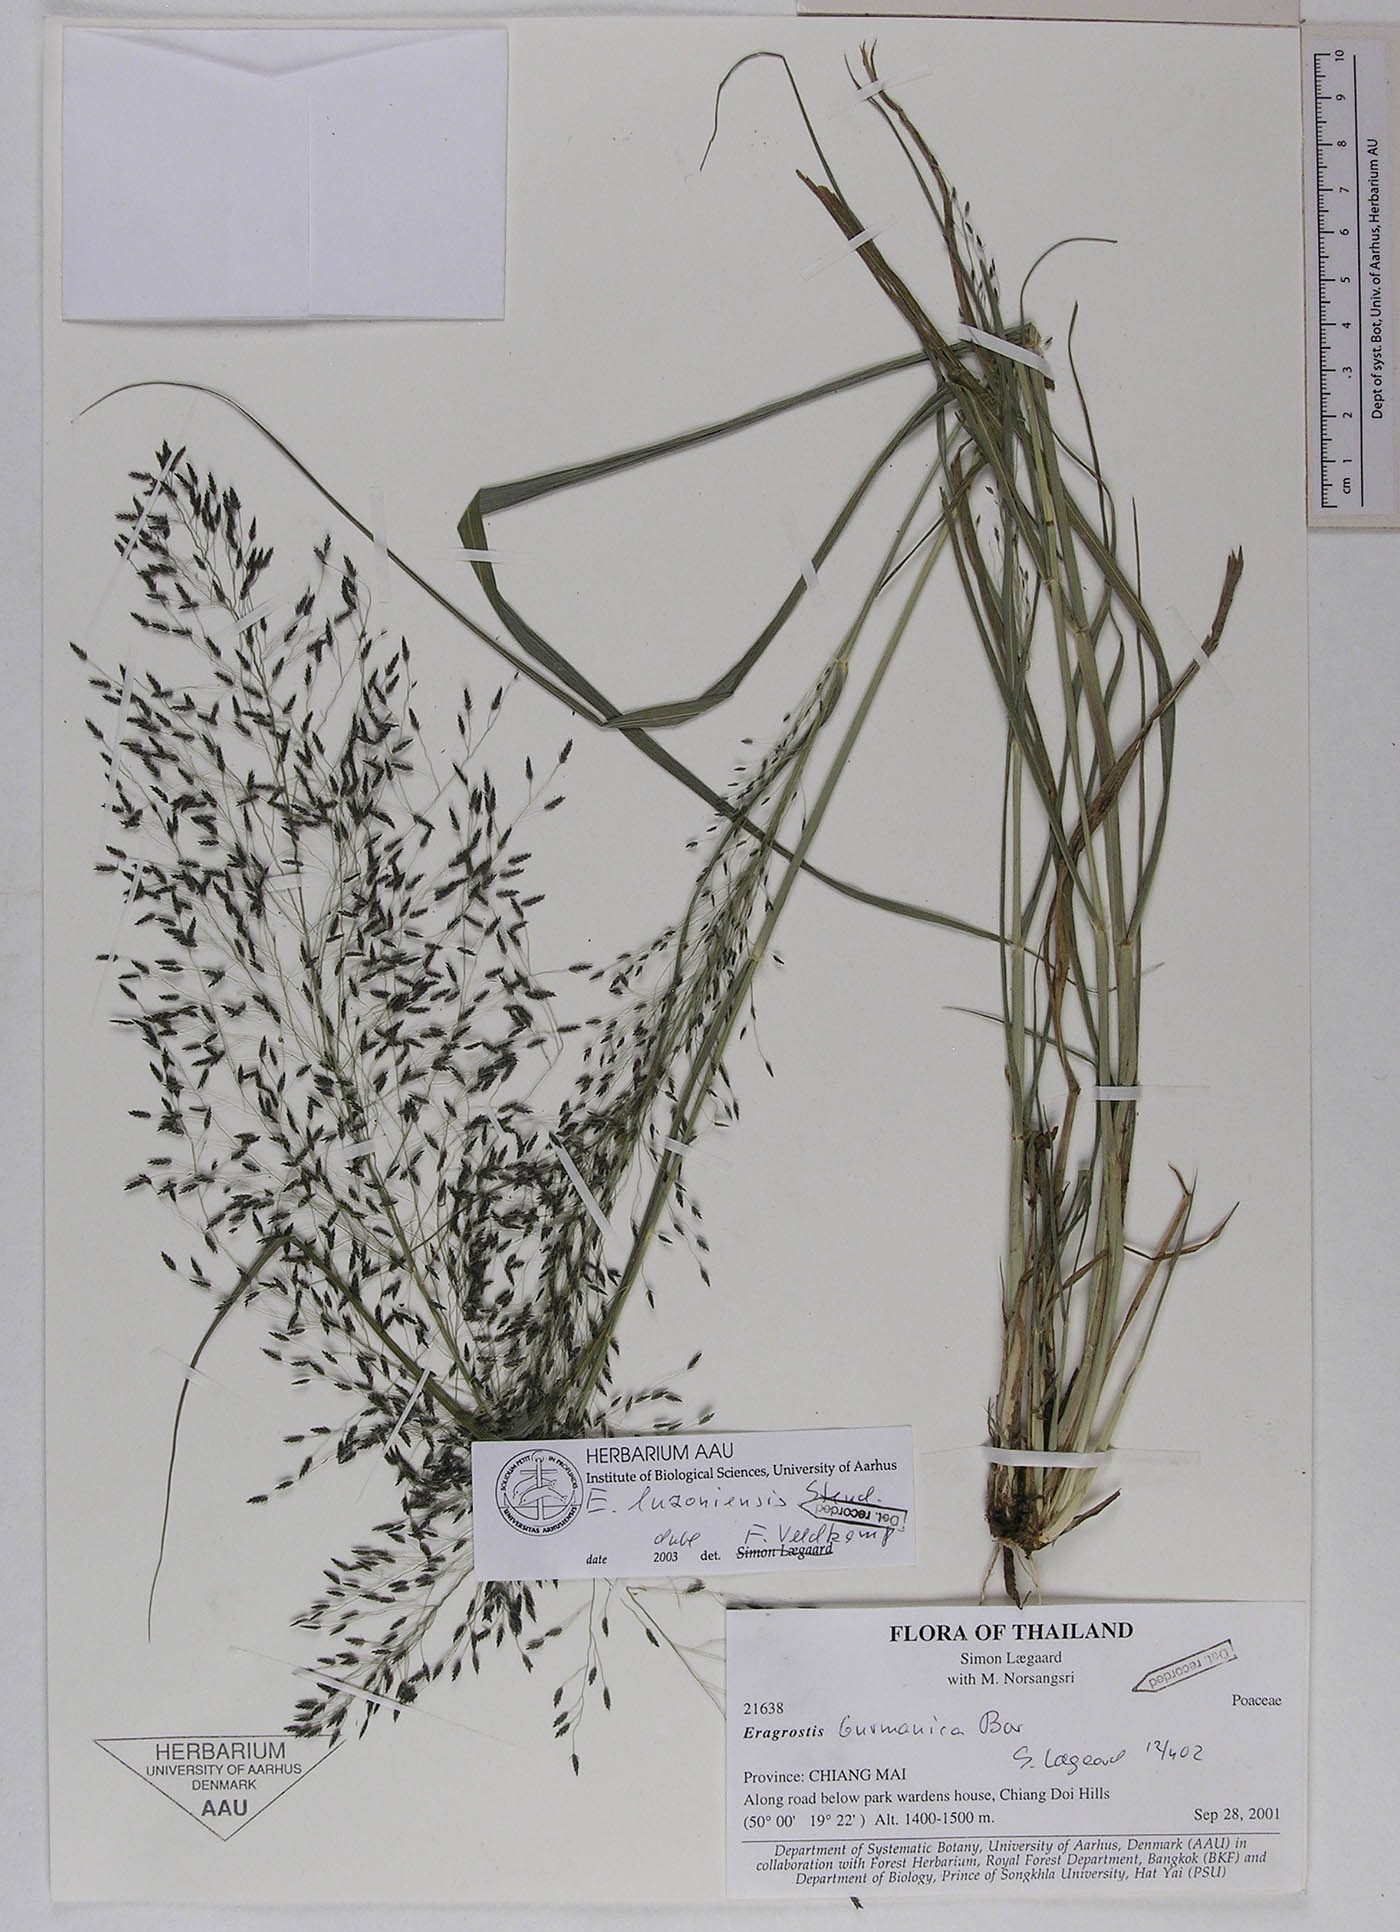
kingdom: Plantae
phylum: Tracheophyta
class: Liliopsida
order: Poales
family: Poaceae
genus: Eragrostis
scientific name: Eragrostis nigra
